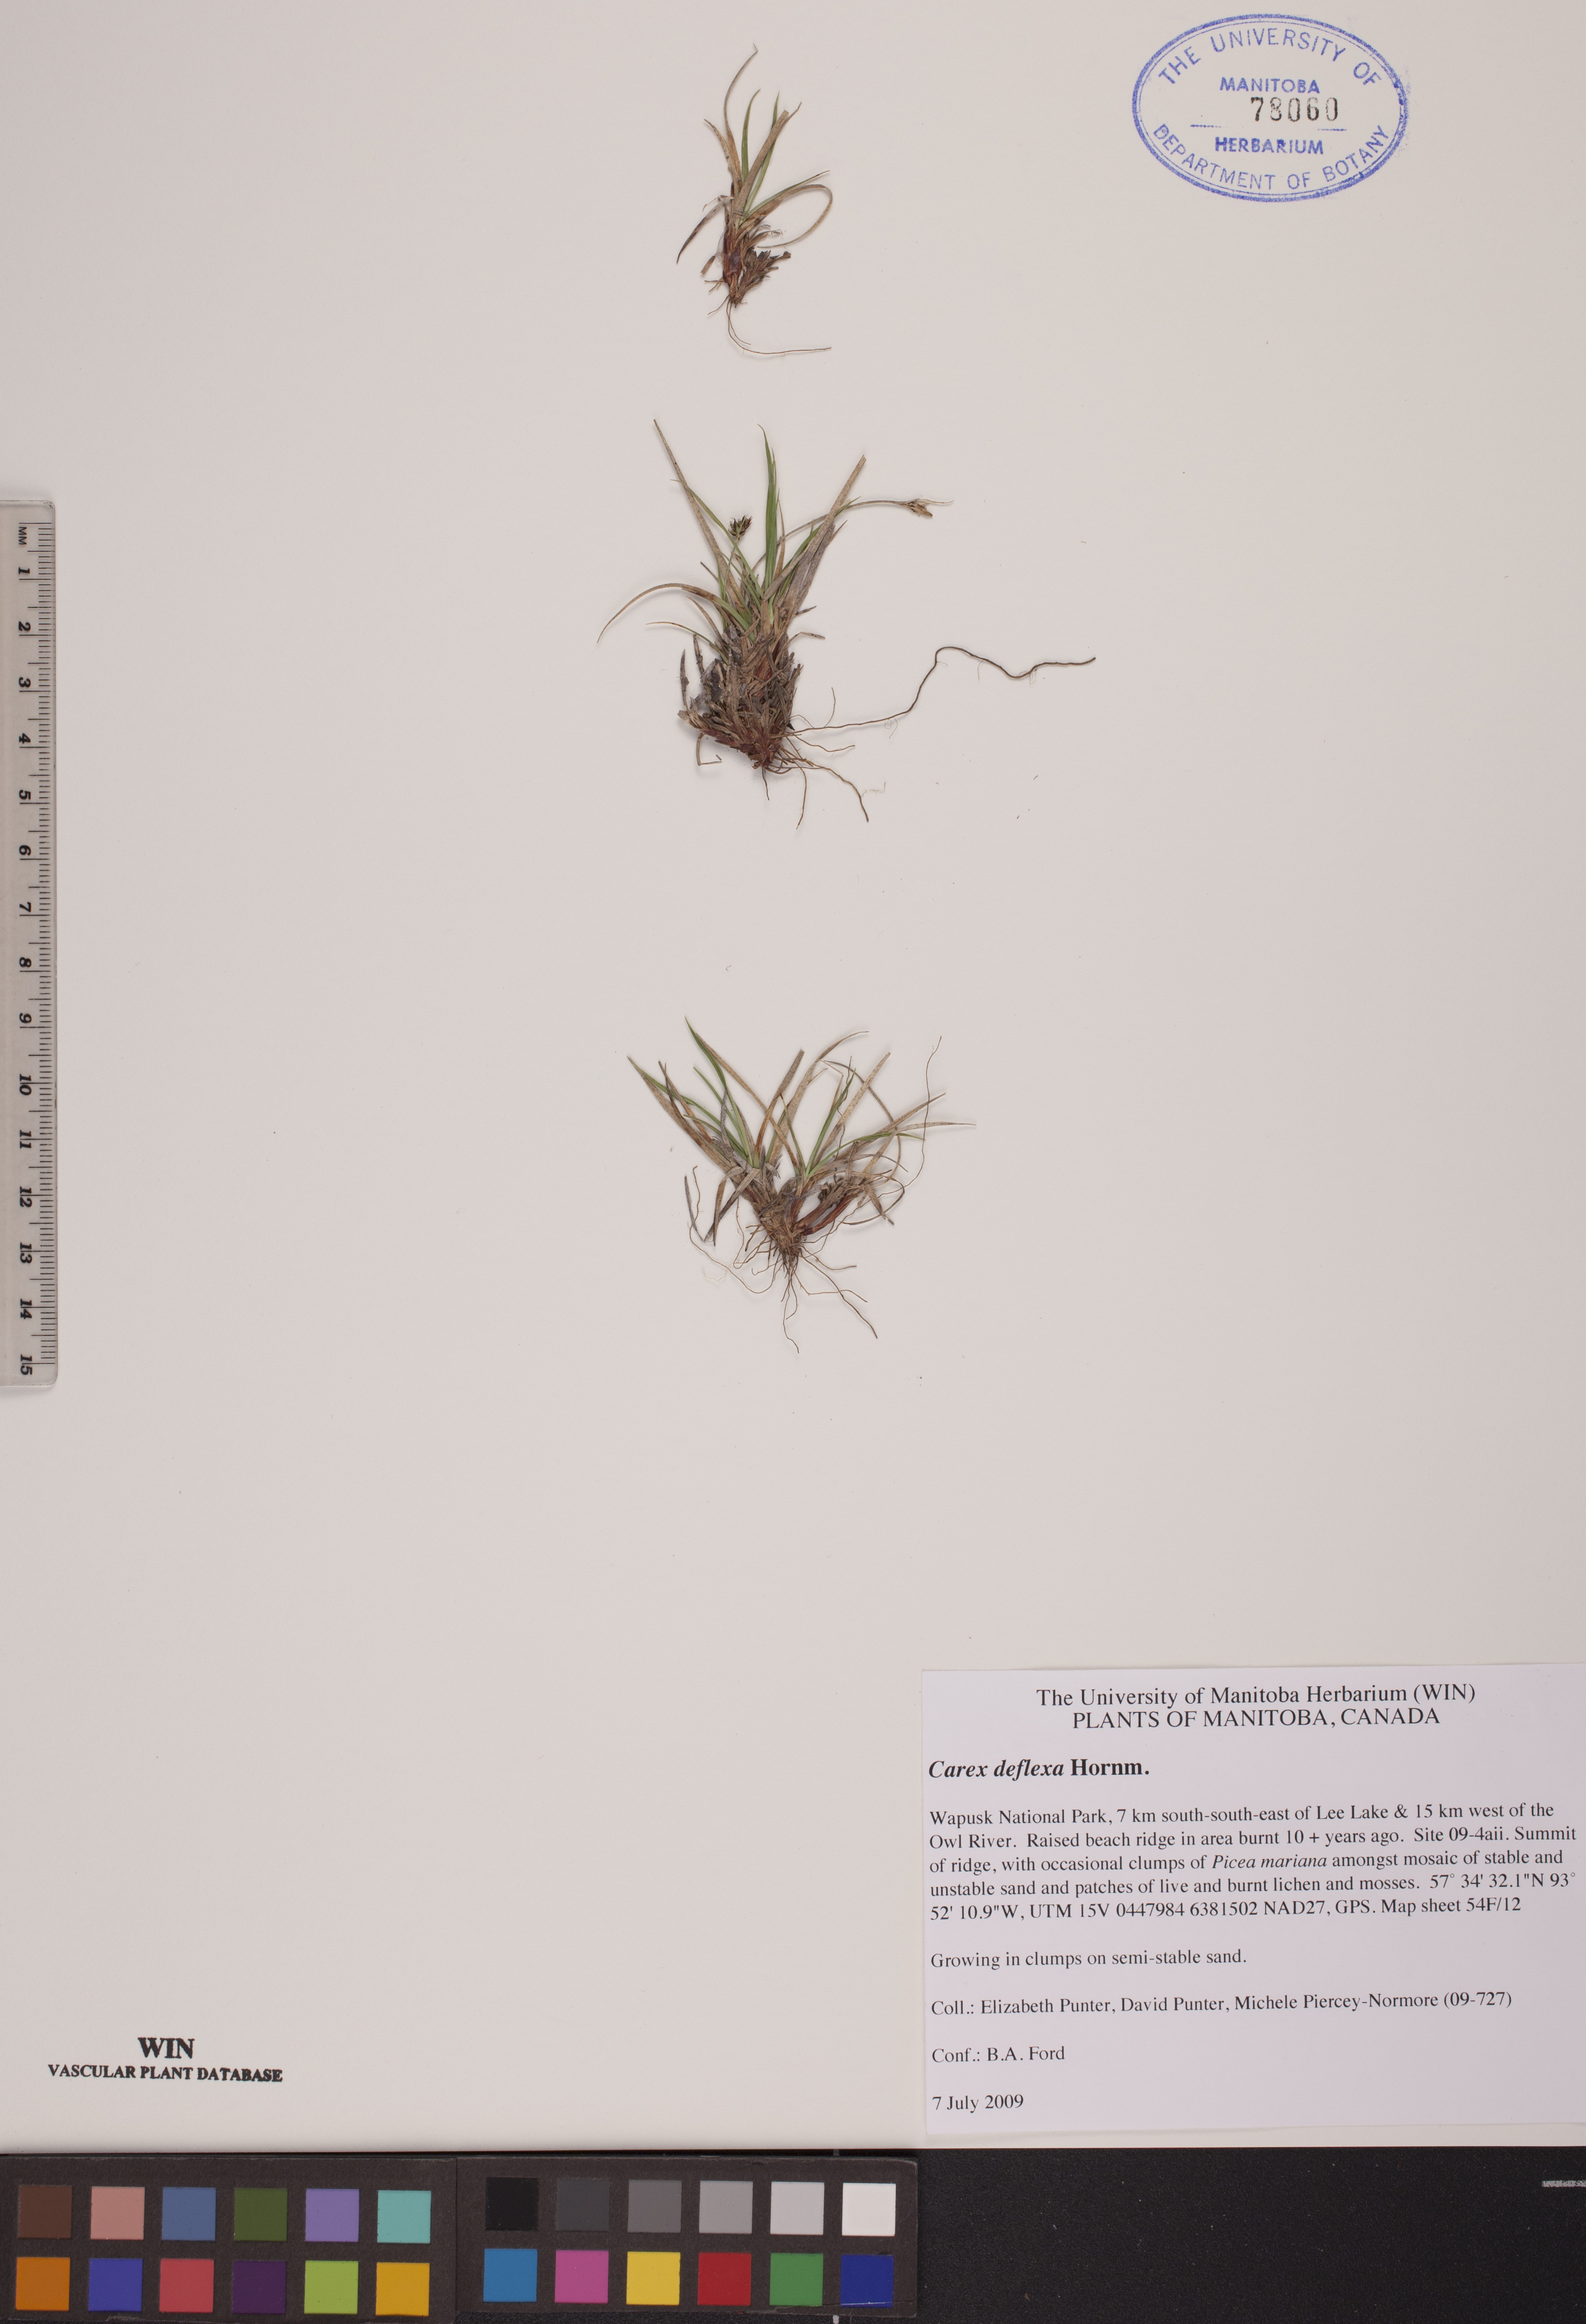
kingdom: Plantae
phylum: Tracheophyta
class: Liliopsida
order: Poales
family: Cyperaceae
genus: Carex
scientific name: Carex deflexa
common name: Bent northern sedge
